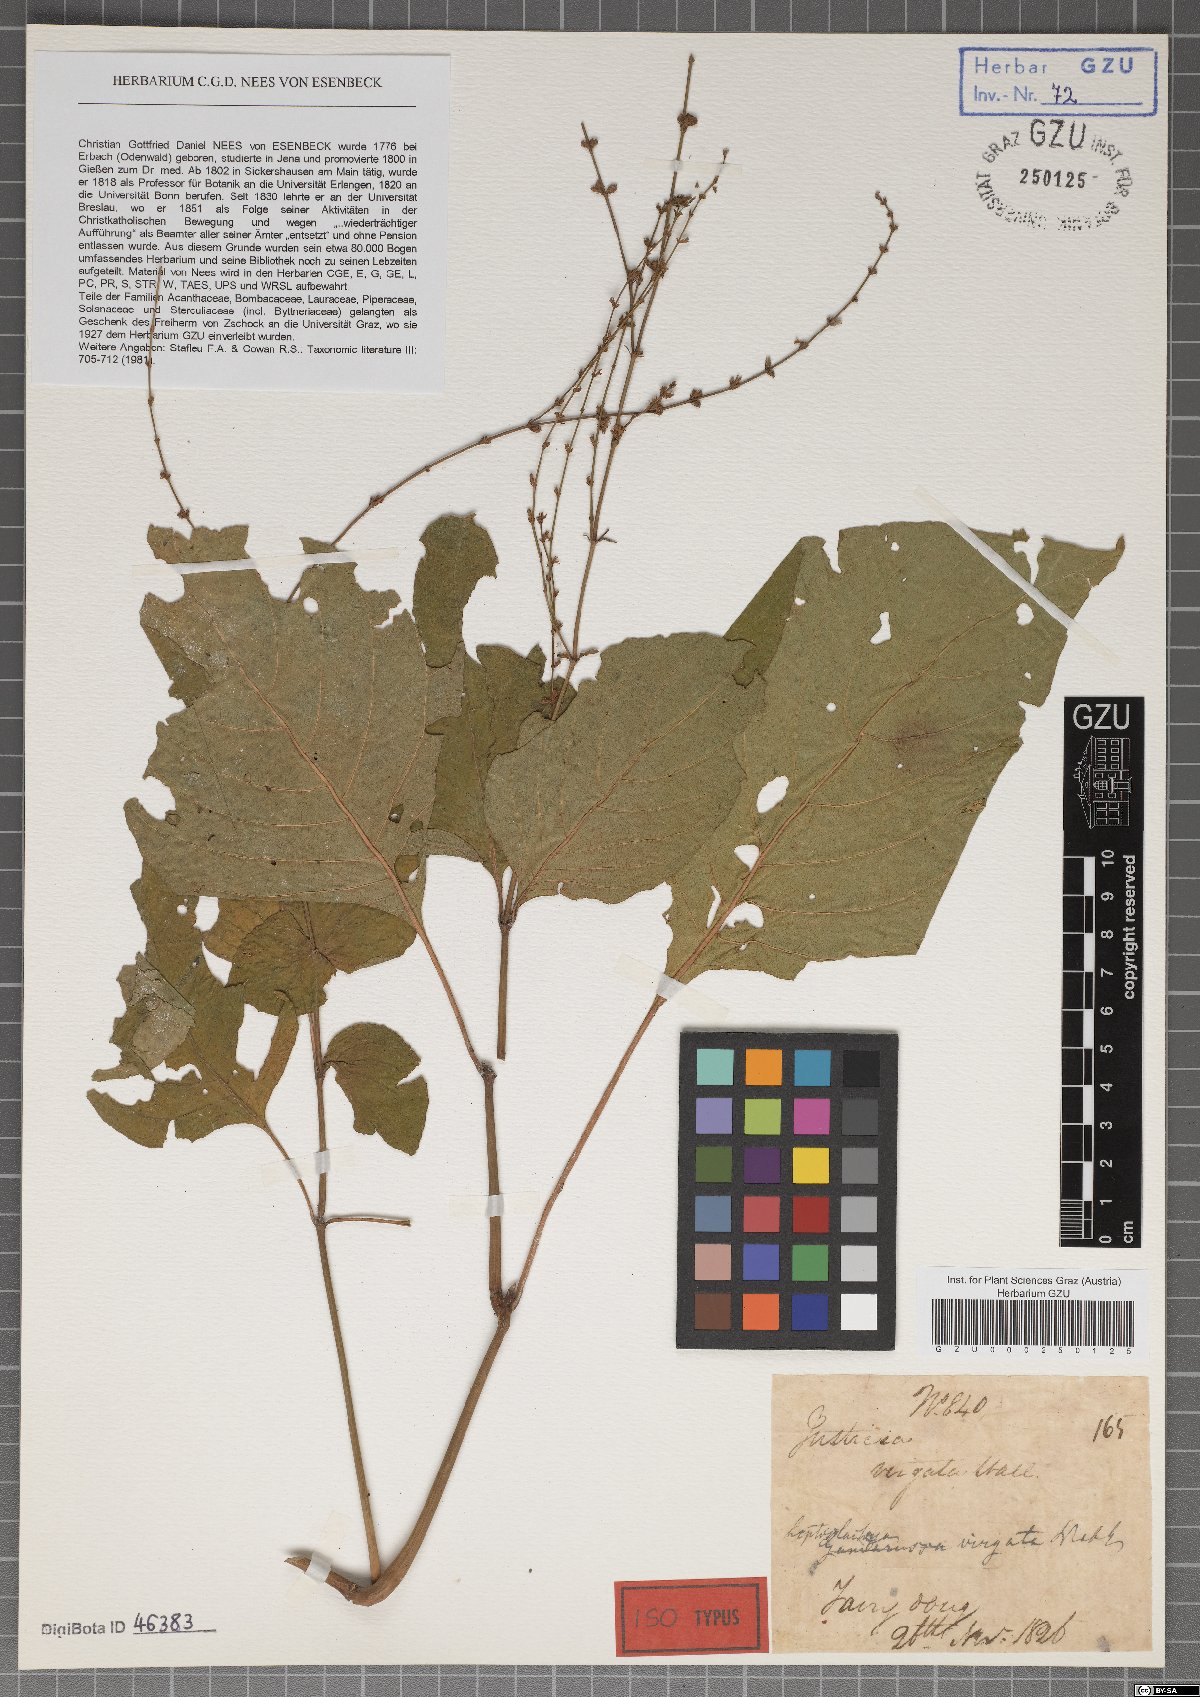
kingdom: Plantae
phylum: Tracheophyta
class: Magnoliopsida
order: Lamiales
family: Acanthaceae
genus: Justicia
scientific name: Justicia virgata
